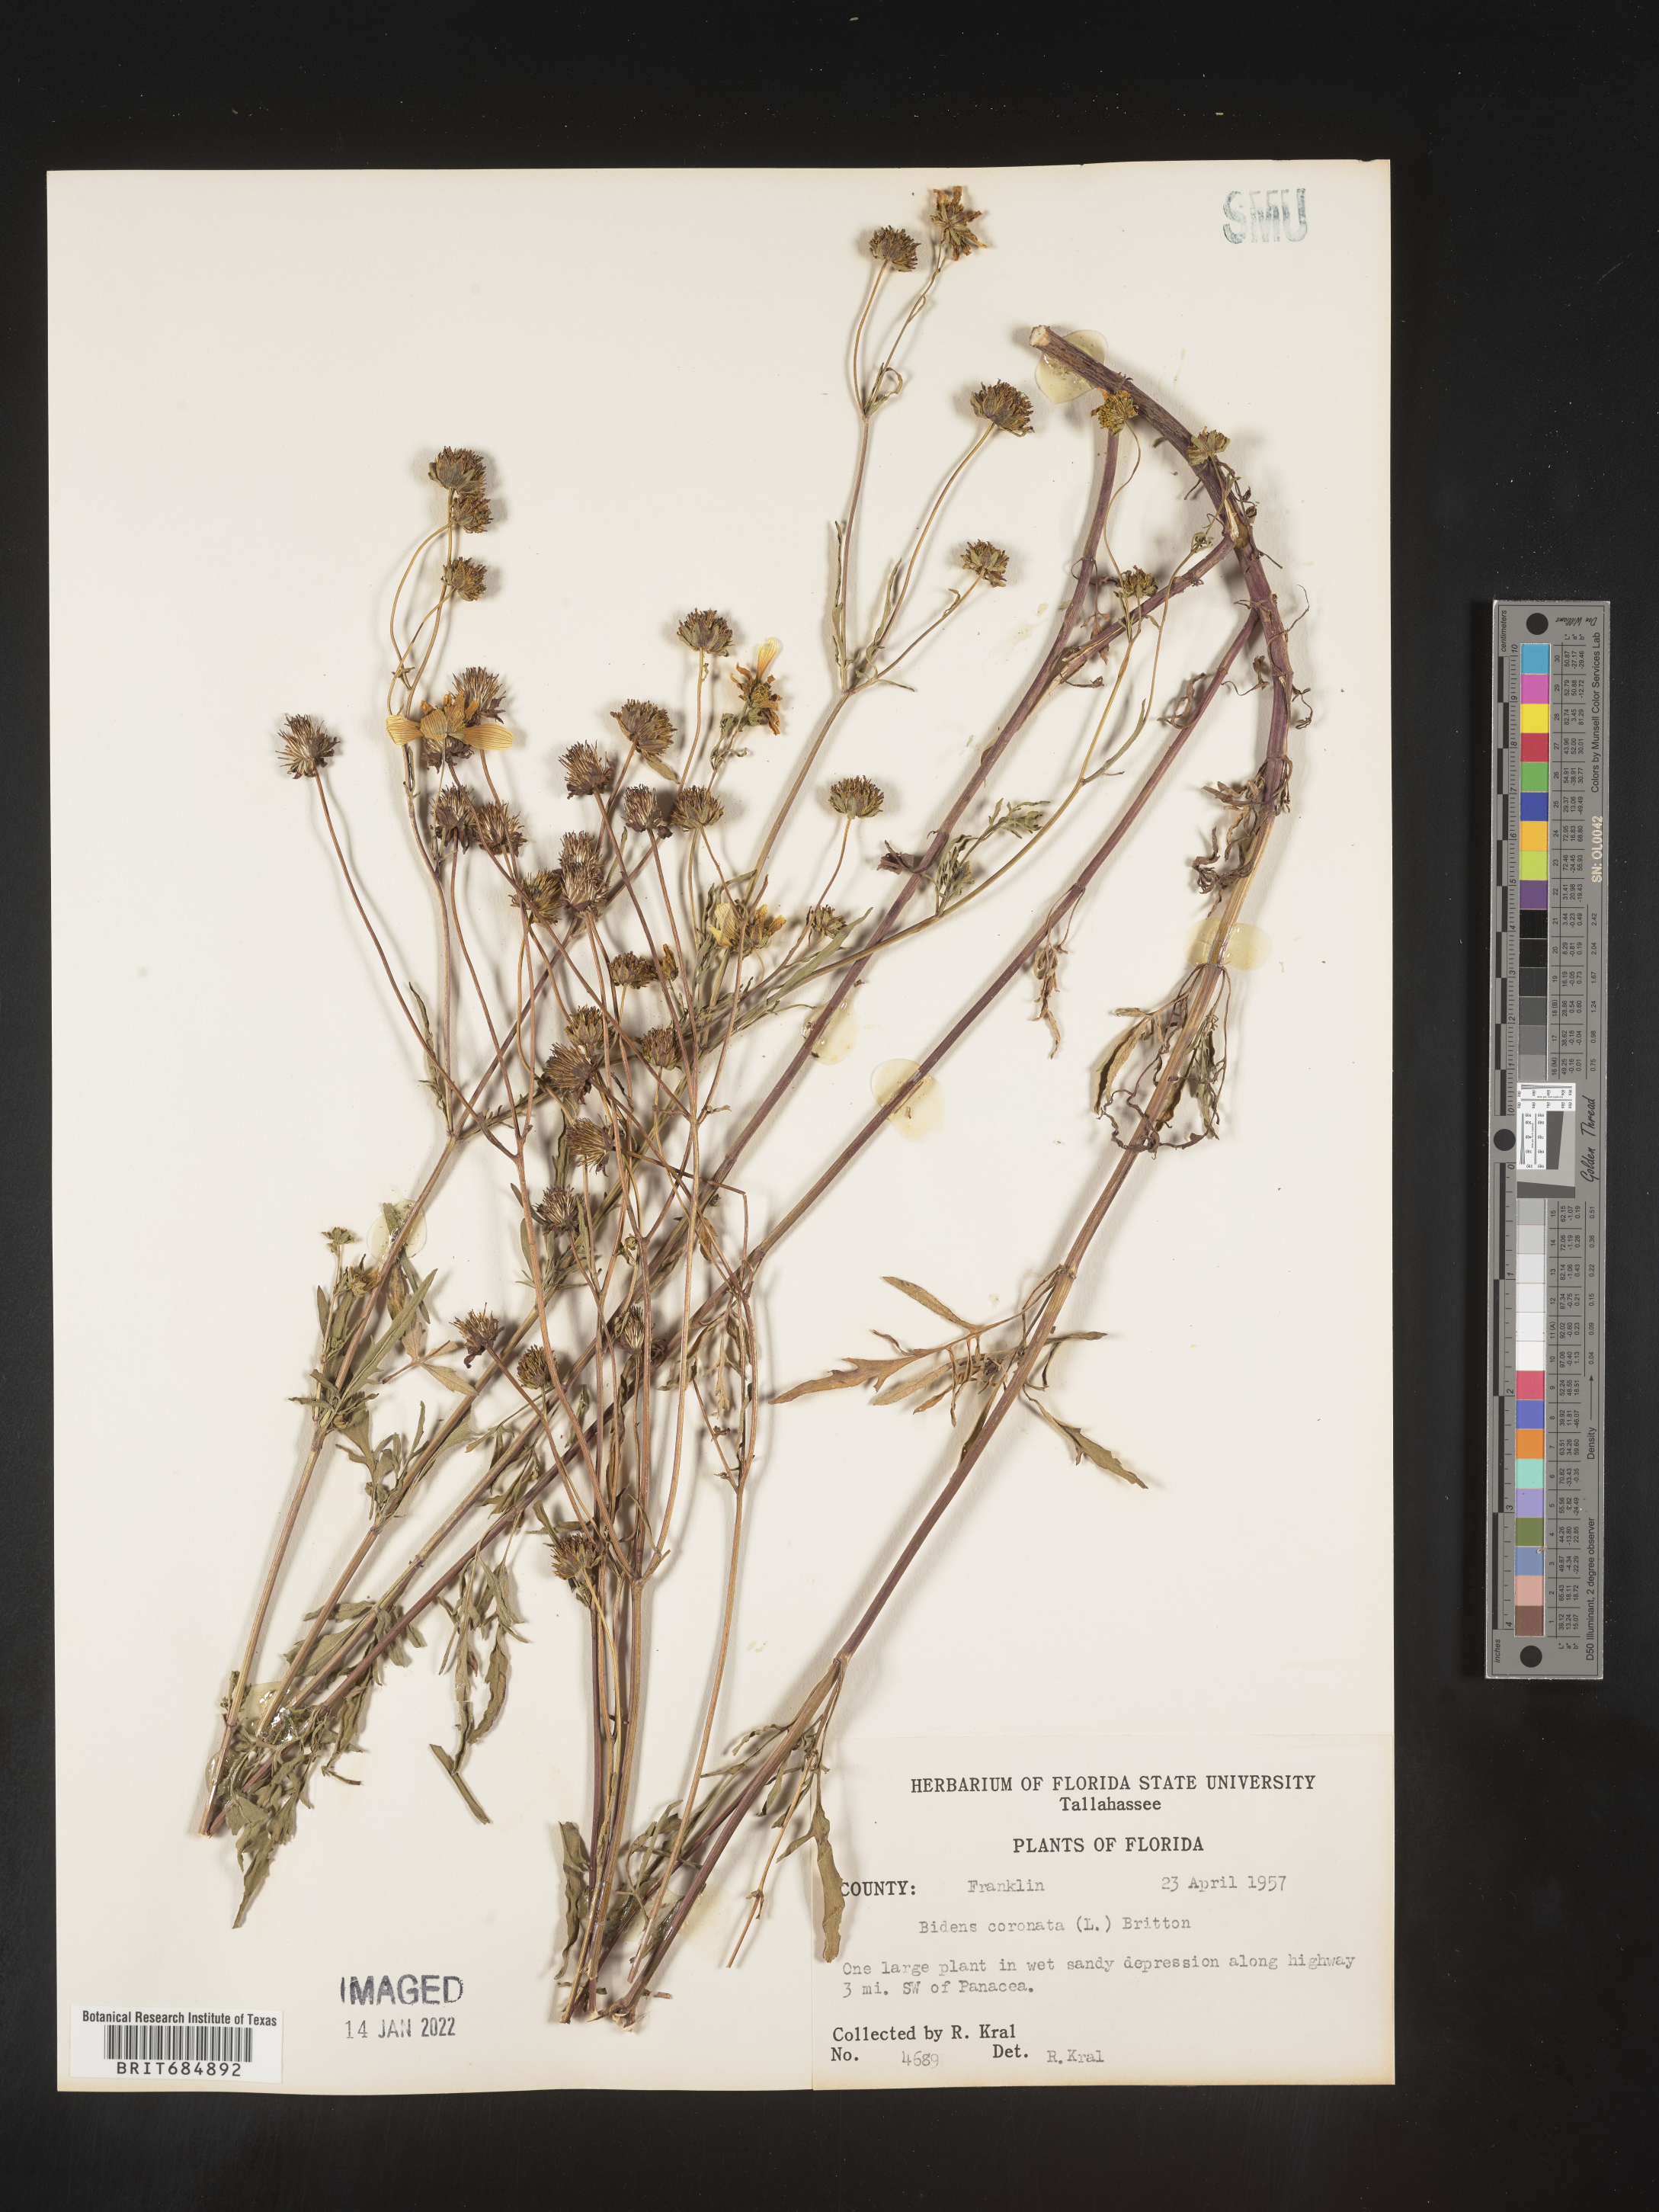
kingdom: Plantae
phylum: Tracheophyta
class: Magnoliopsida
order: Asterales
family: Asteraceae
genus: Bidens
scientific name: Bidens trichosperma
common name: Crowned beggarticks
